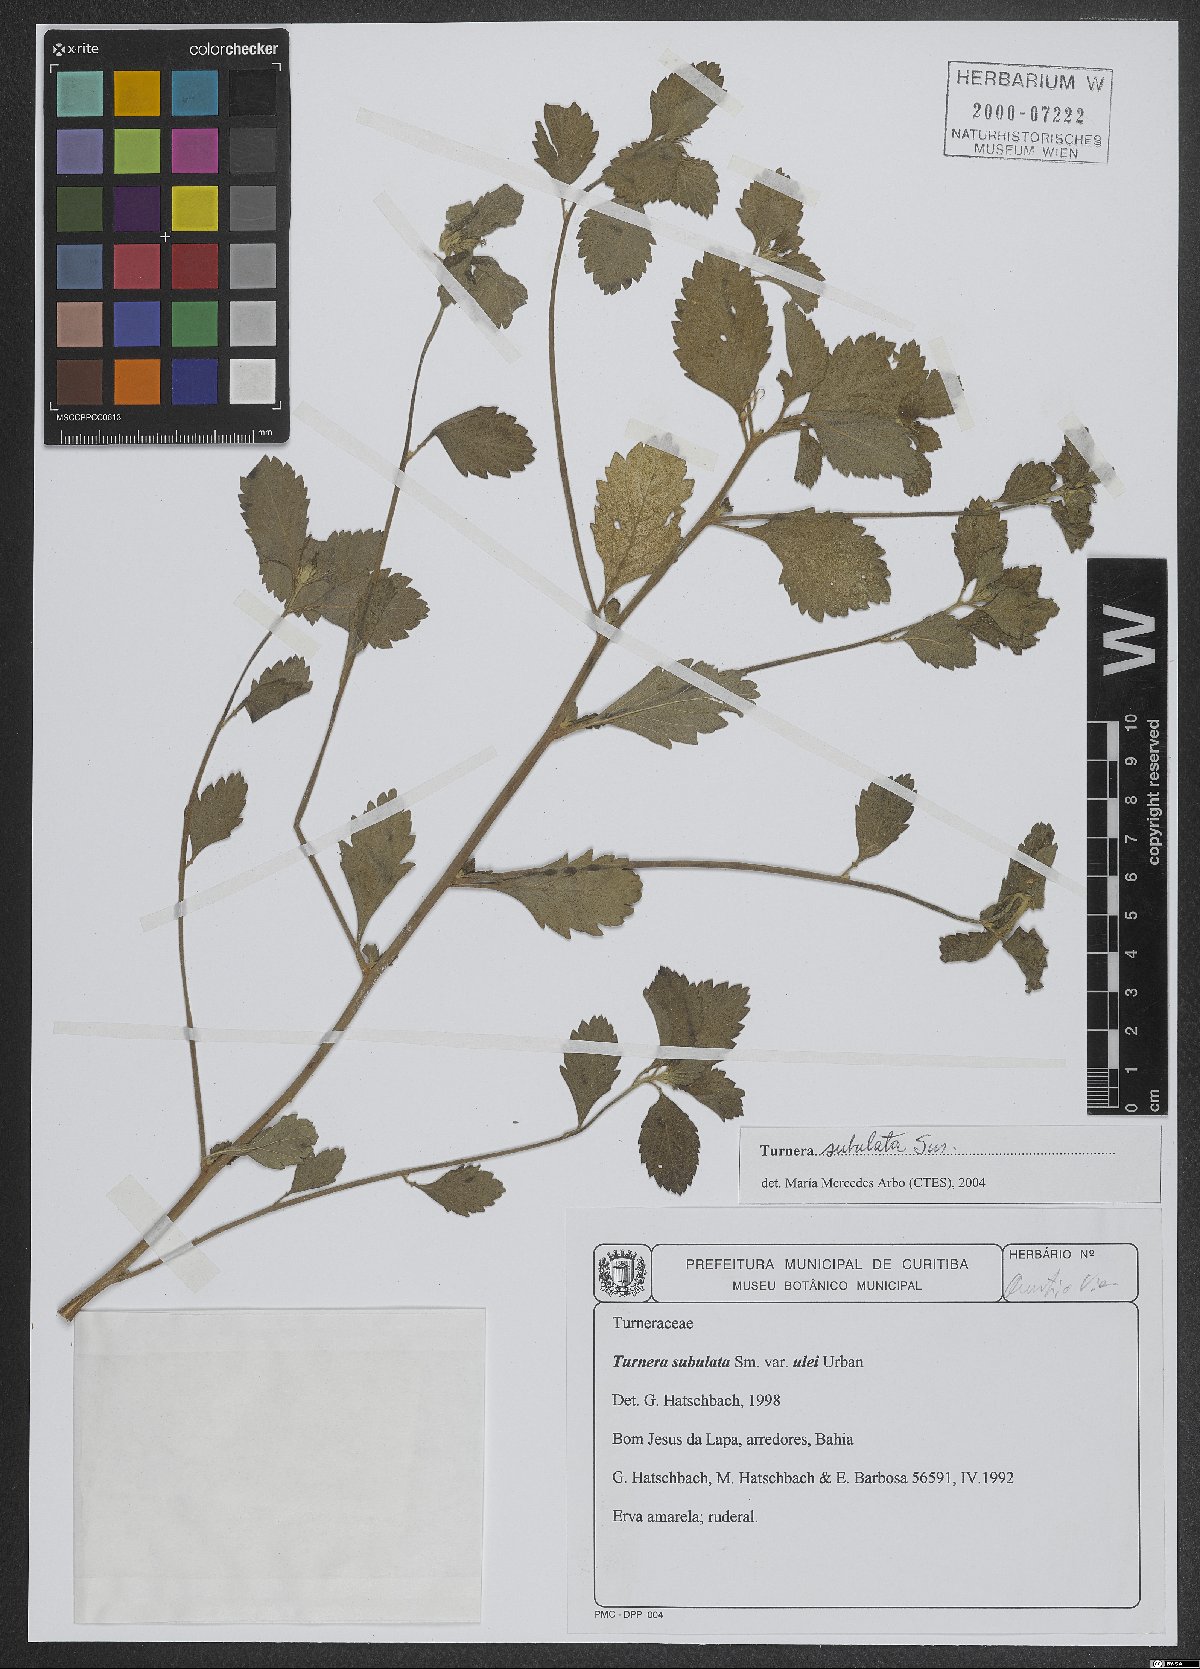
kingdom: Plantae
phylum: Tracheophyta
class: Magnoliopsida
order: Malpighiales
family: Turneraceae
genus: Turnera
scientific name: Turnera subulata
